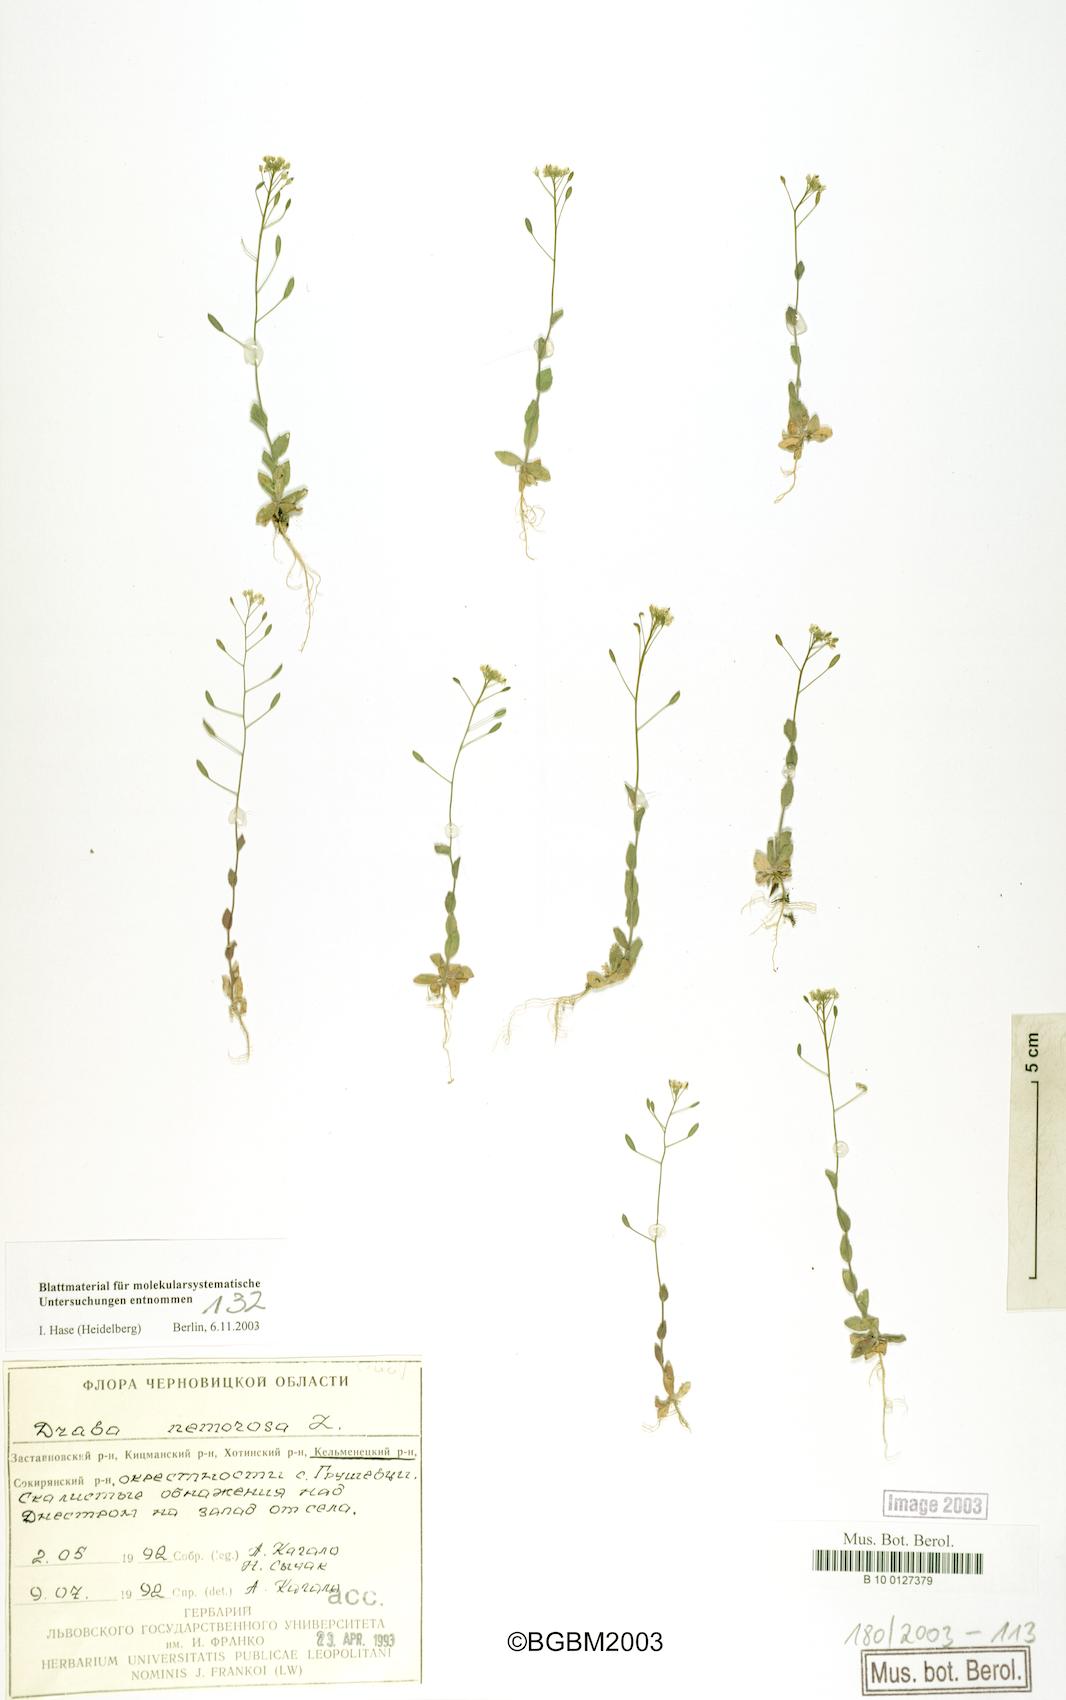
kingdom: Plantae
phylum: Tracheophyta
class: Magnoliopsida
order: Brassicales
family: Brassicaceae
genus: Draba
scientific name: Draba nemorosa
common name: Wood whitlow-grass
